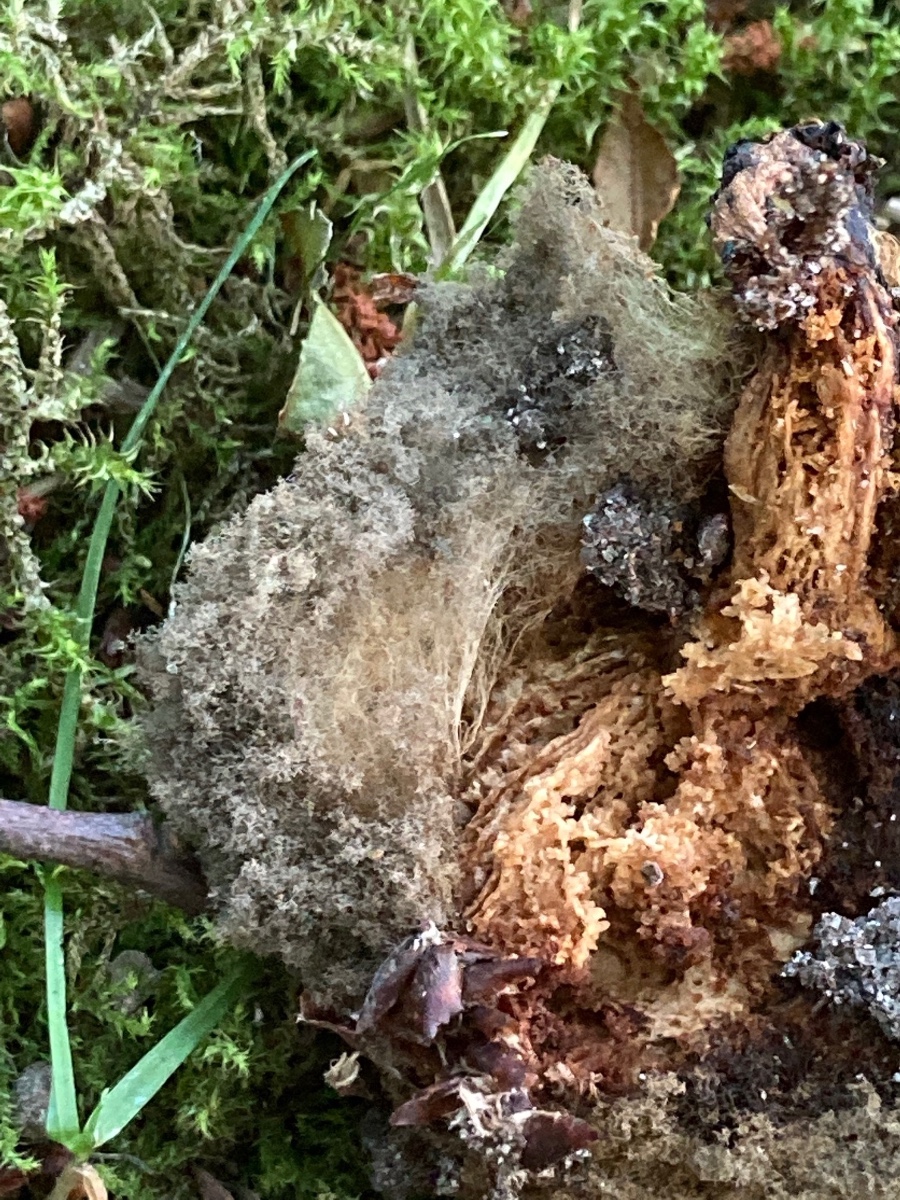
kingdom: Fungi
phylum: Mucoromycota
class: Mucoromycetes
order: Mucorales
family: Rhizopodaceae
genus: Syzygites
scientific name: Syzygites megalocarpus
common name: nissenål
